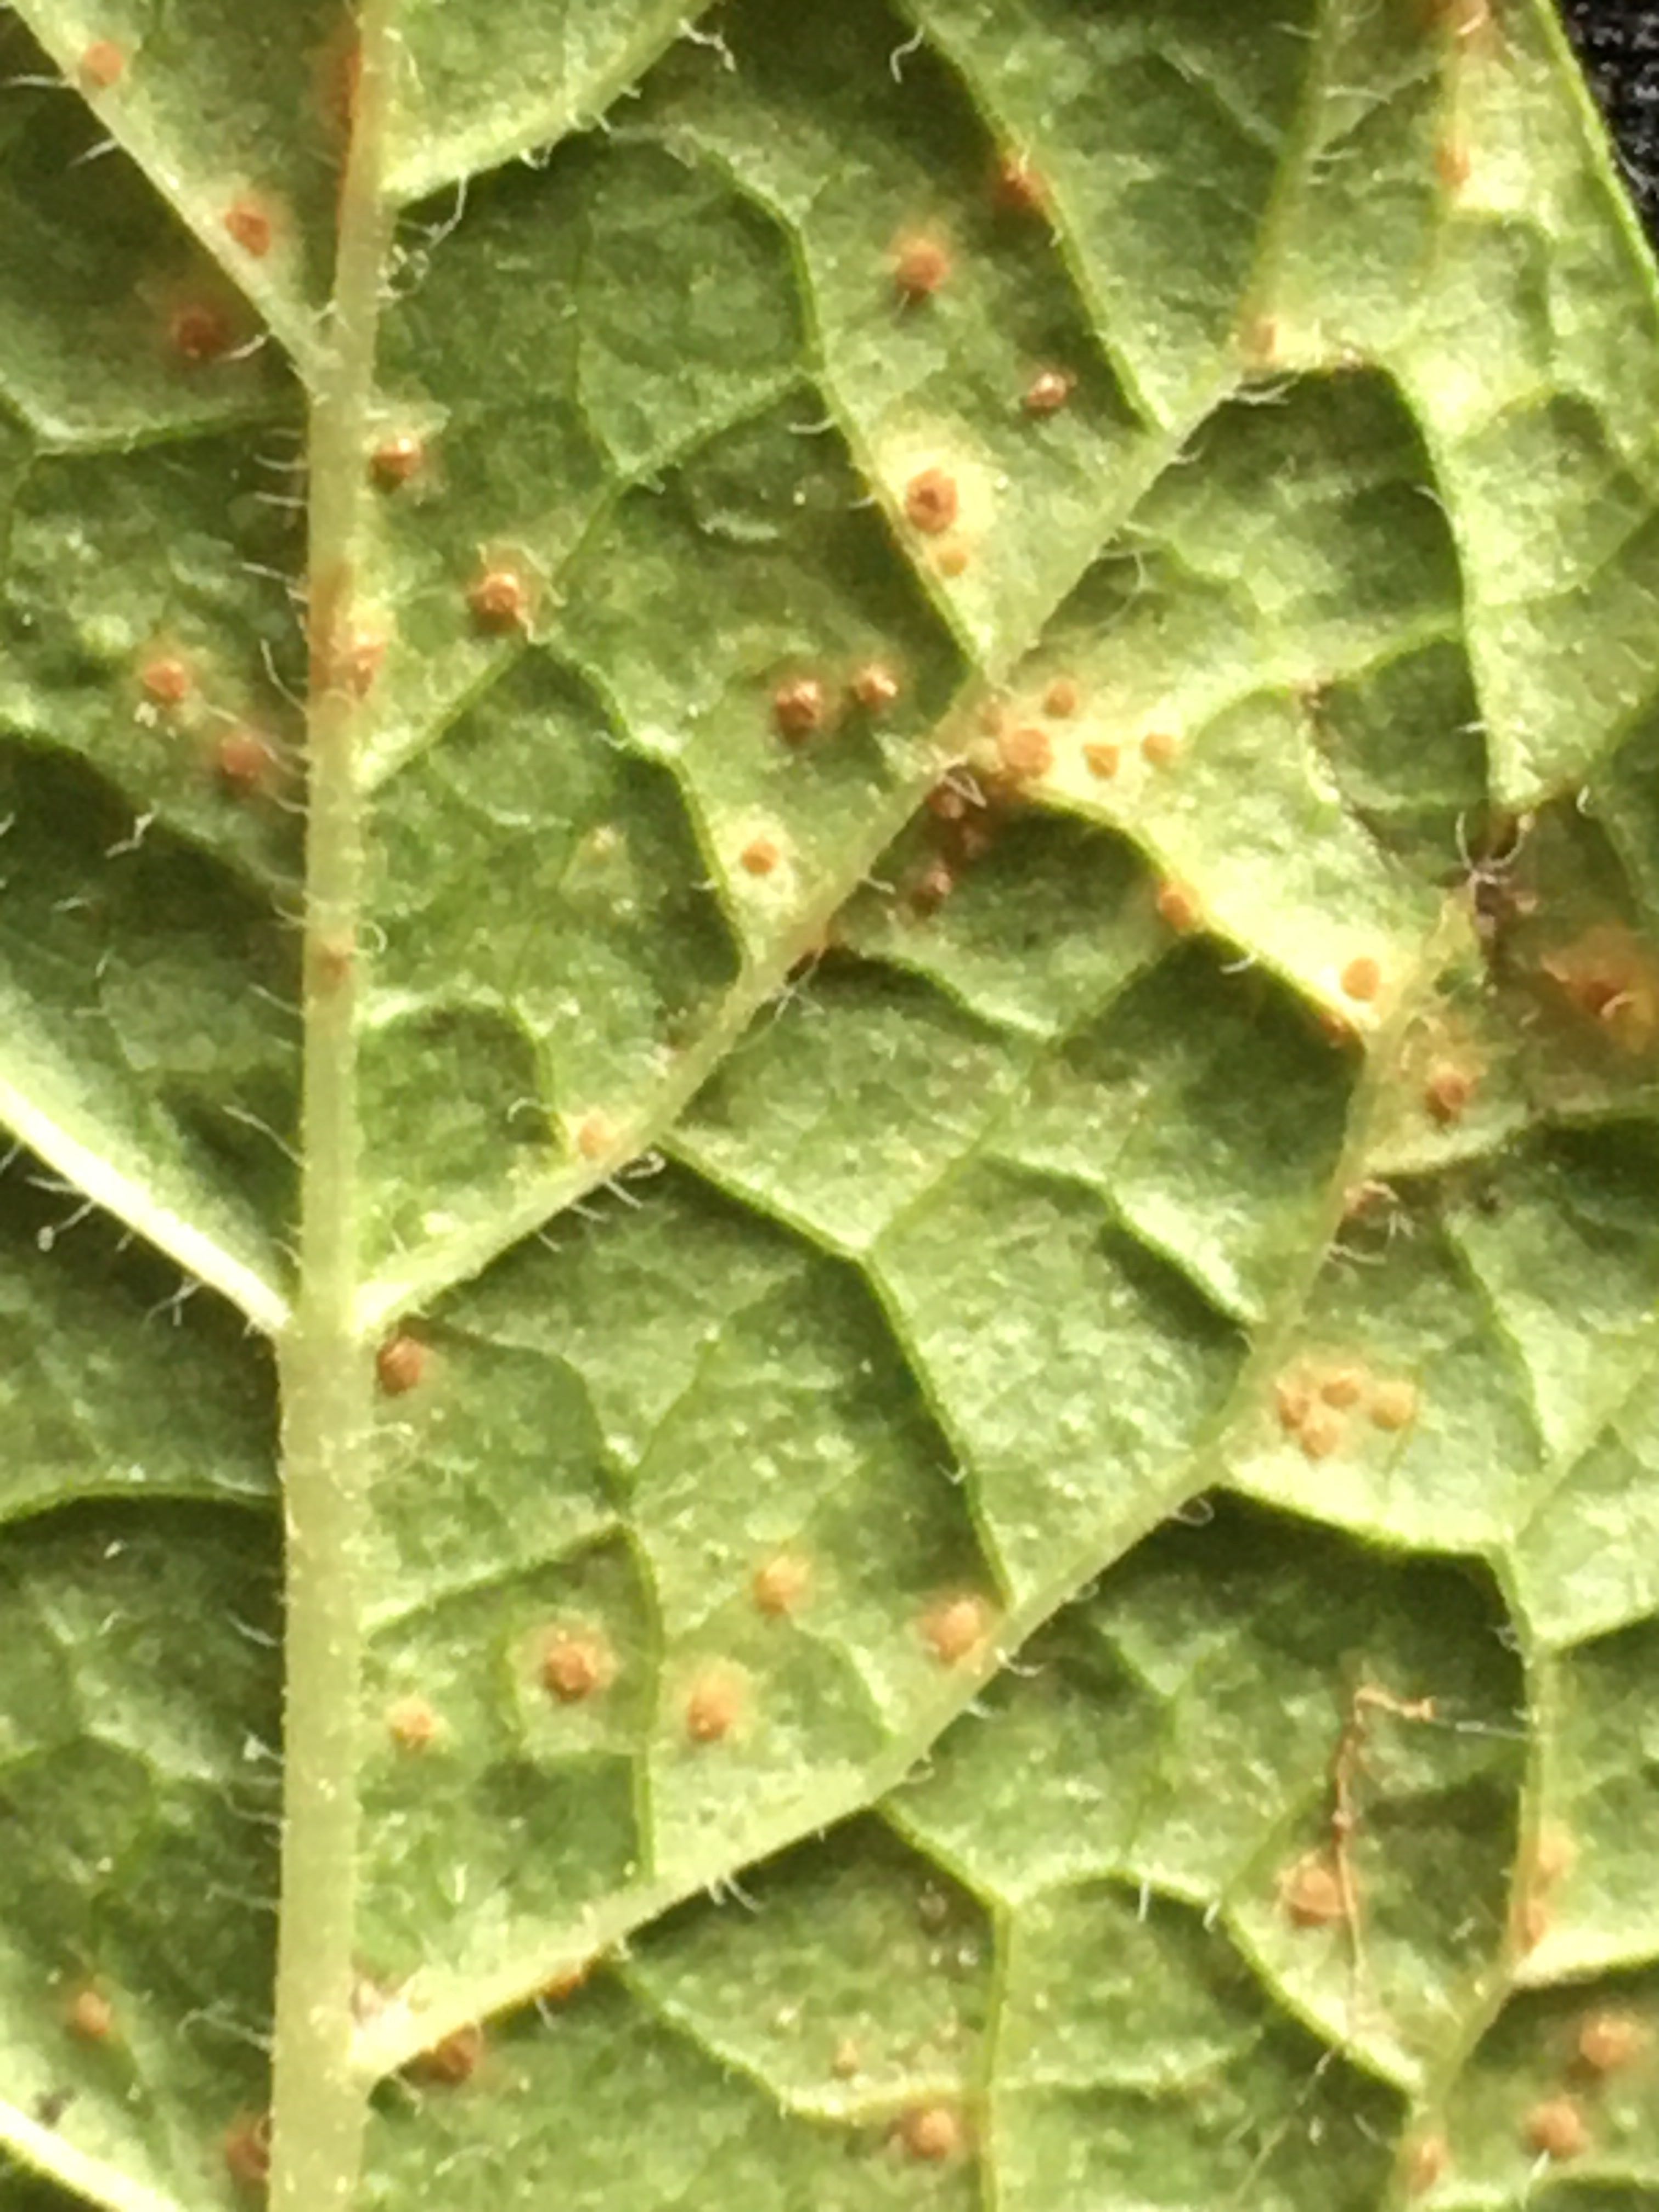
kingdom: Fungi
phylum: Basidiomycota
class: Pucciniomycetes
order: Pucciniales
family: Pucciniaceae
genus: Puccinia
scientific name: Puccinia menthae
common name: Mint rust
